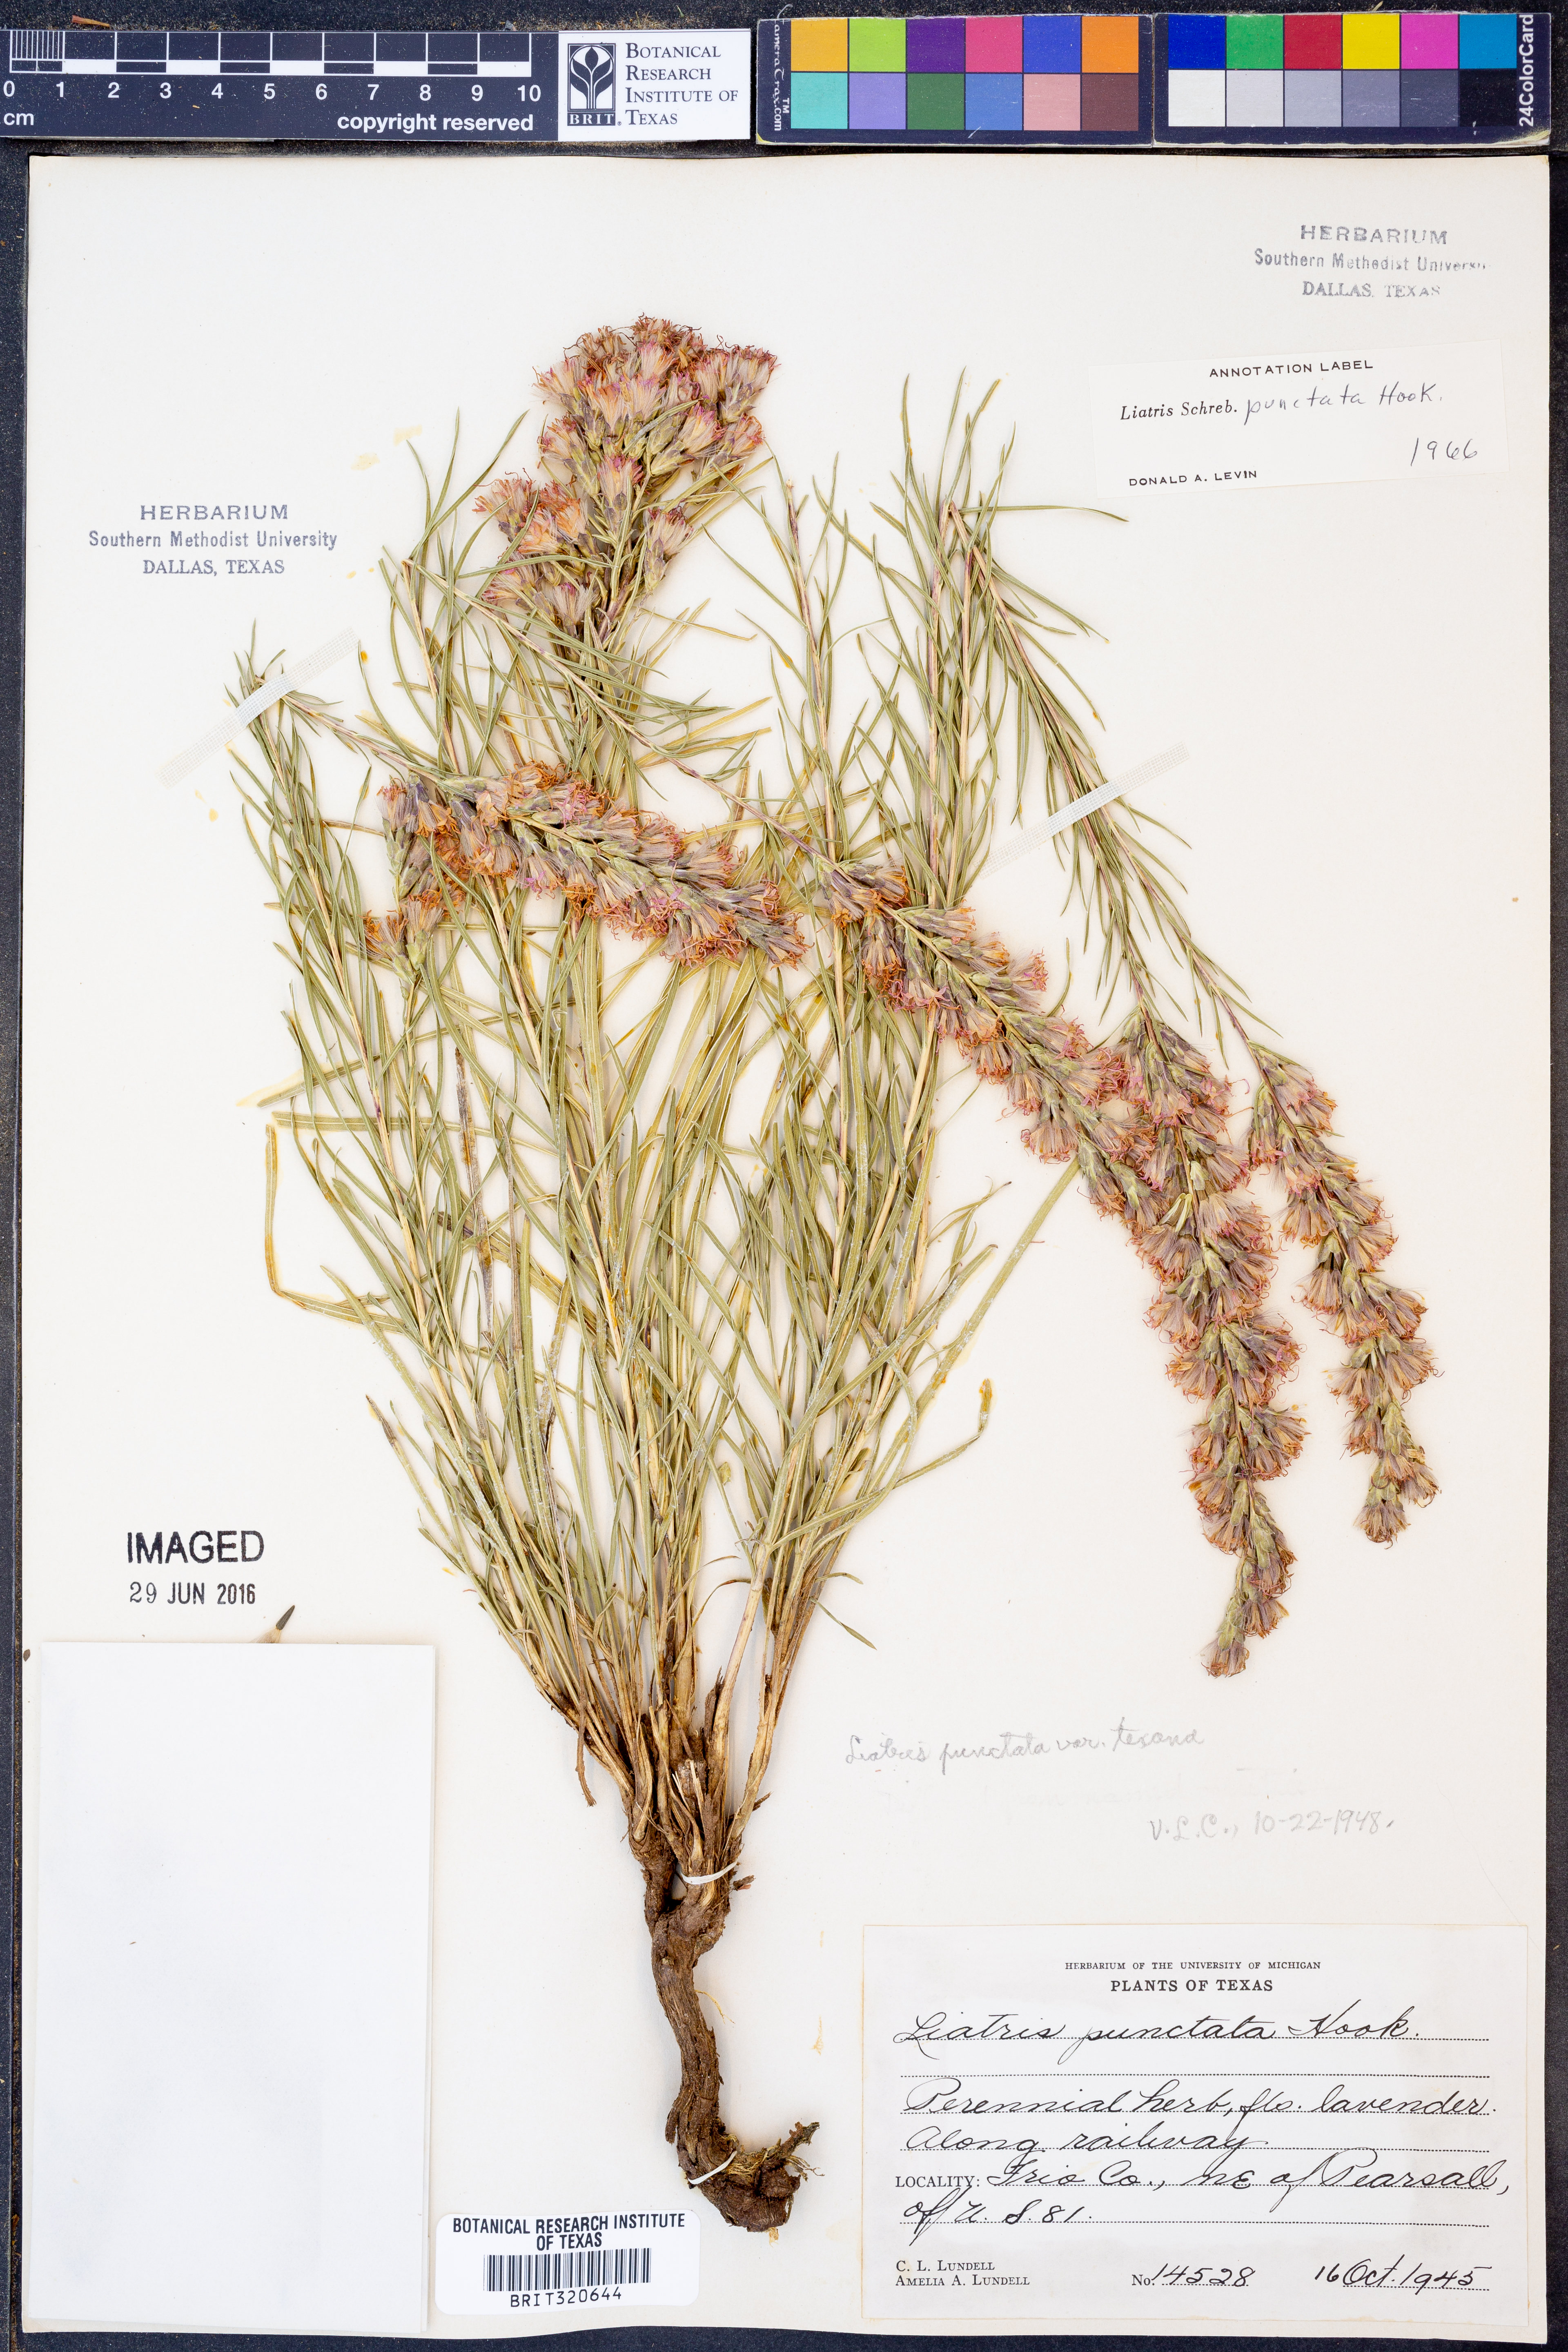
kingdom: Plantae
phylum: Tracheophyta
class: Magnoliopsida
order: Asterales
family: Asteraceae
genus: Liatris
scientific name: Liatris punctata
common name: Dotted gayfeather
